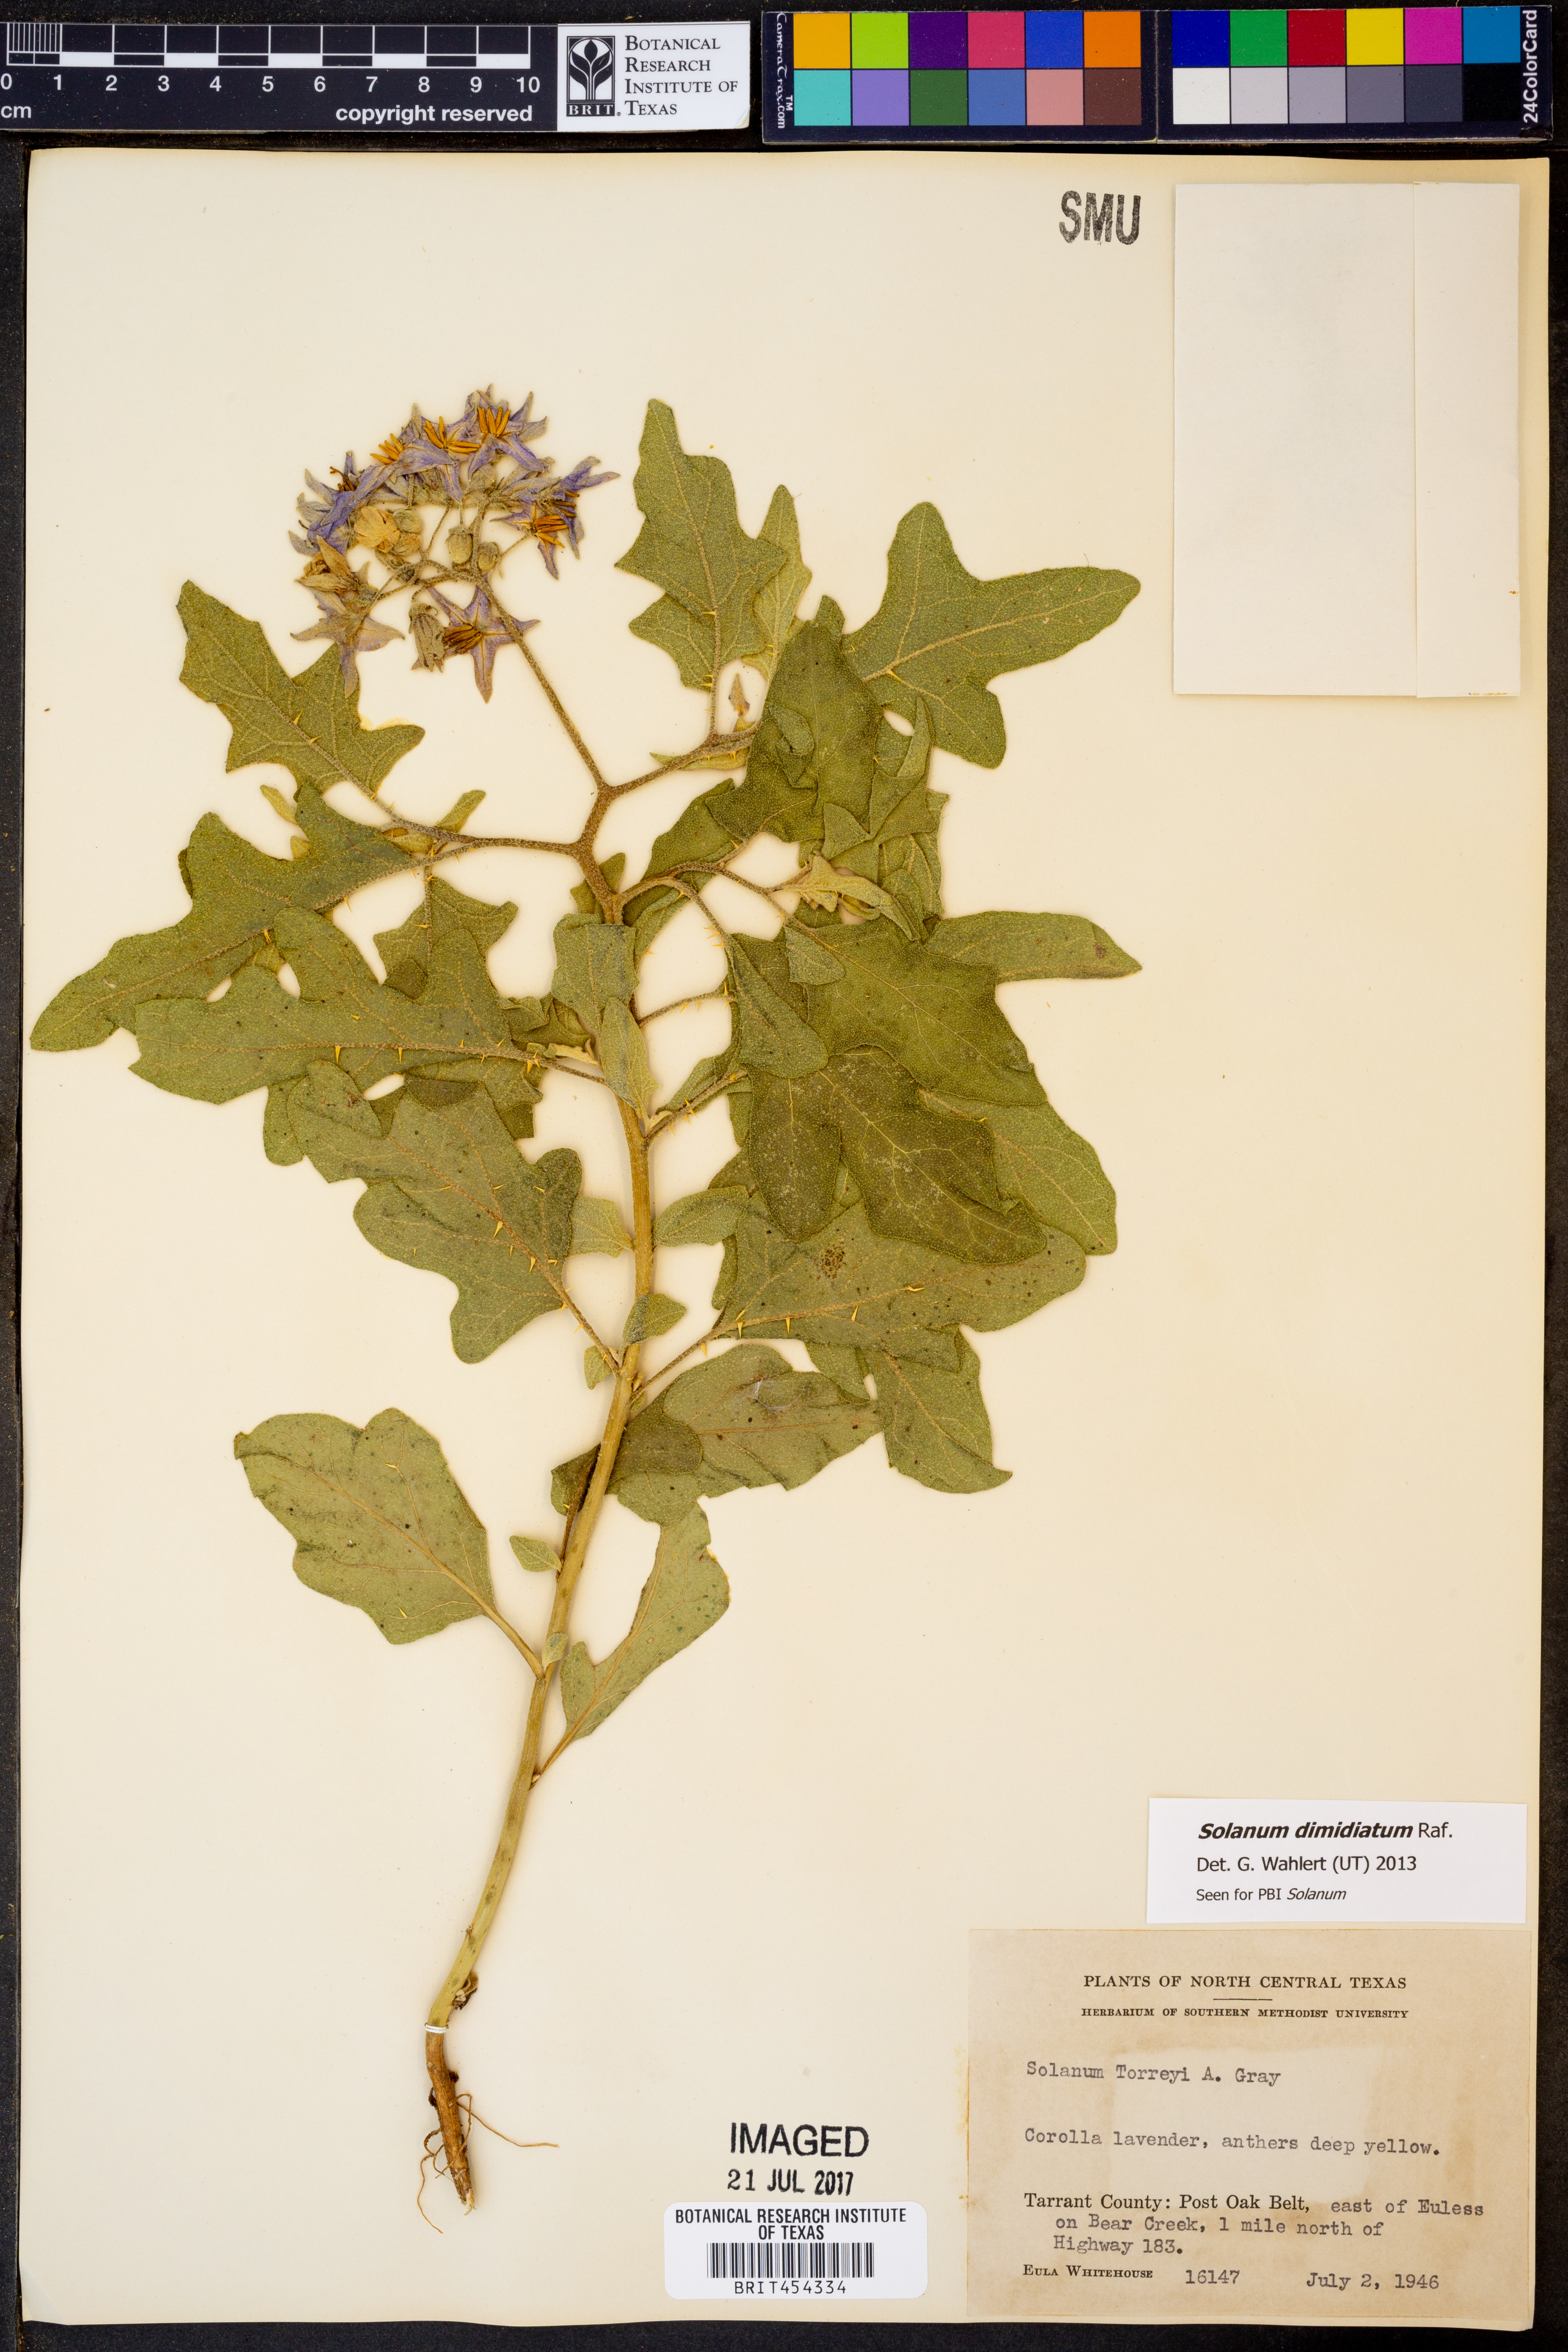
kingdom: Plantae
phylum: Tracheophyta
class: Magnoliopsida
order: Solanales
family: Solanaceae
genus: Solanum
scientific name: Solanum dimidiatum
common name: Carolina horse-nettle
